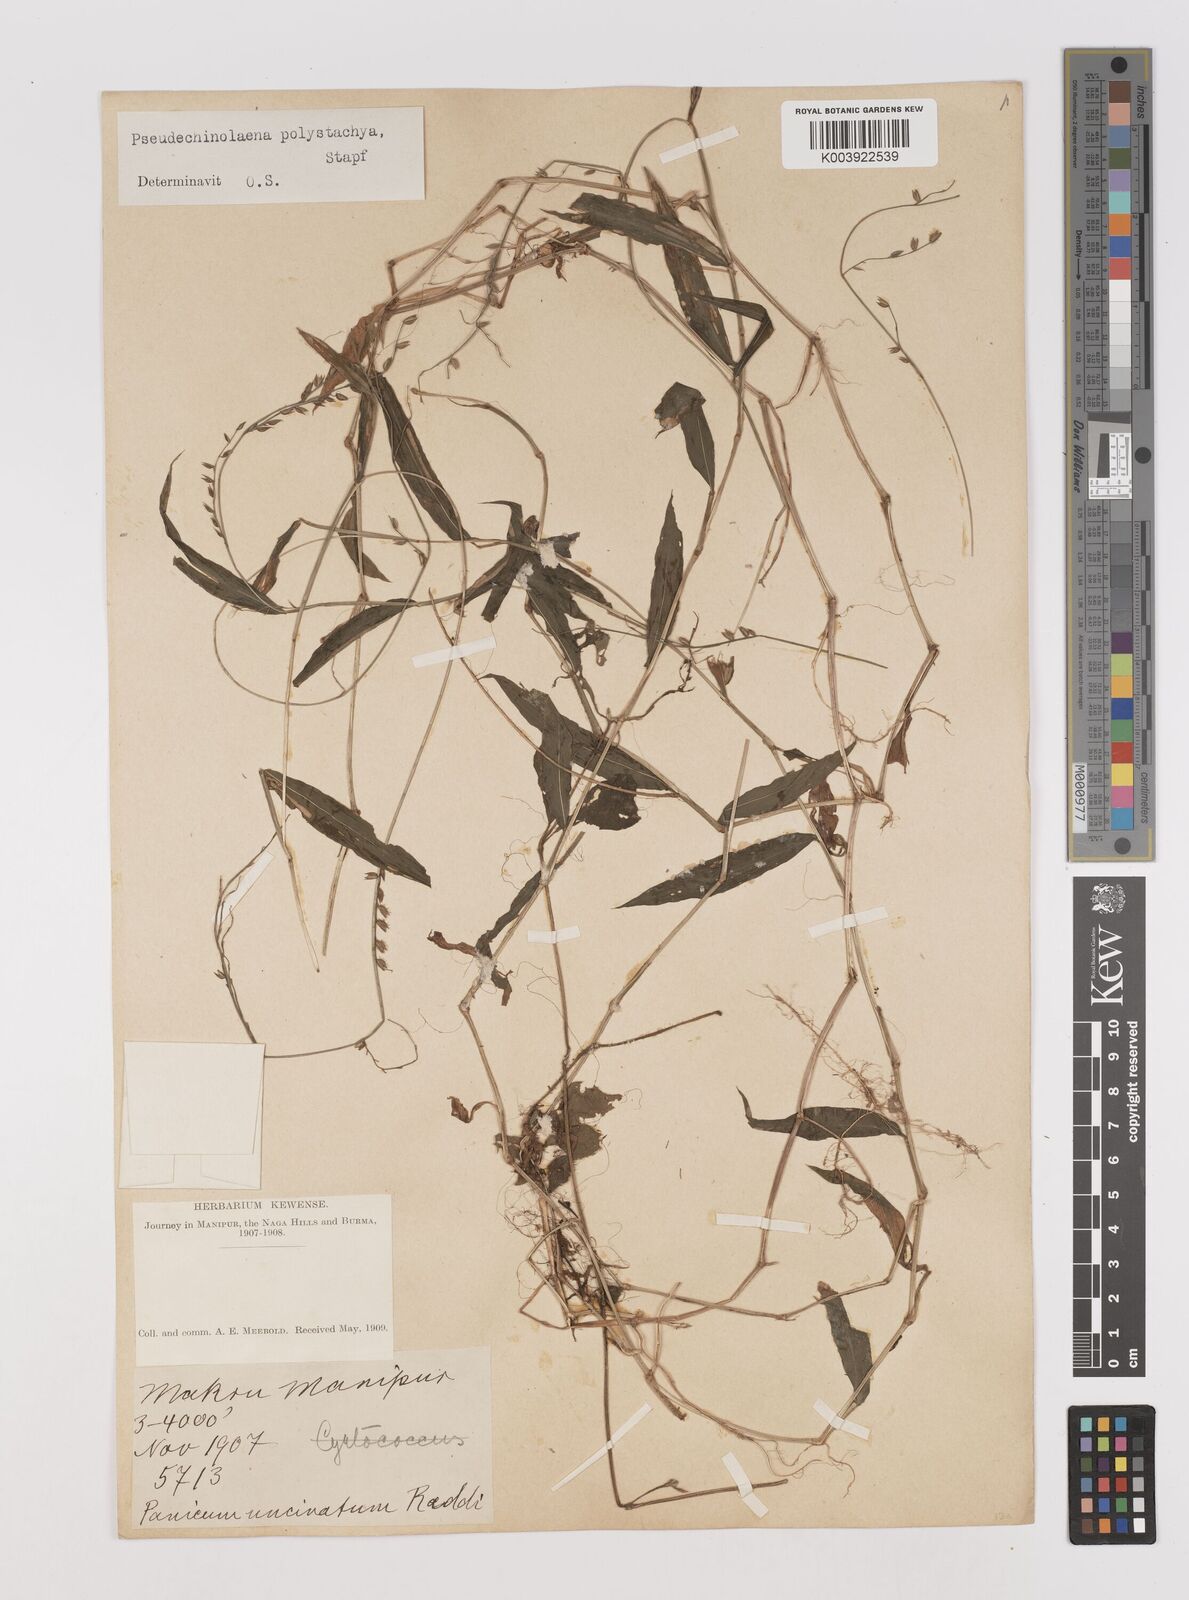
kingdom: Plantae
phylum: Tracheophyta
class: Liliopsida
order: Poales
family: Poaceae
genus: Pseudechinolaena
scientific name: Pseudechinolaena polystachya
